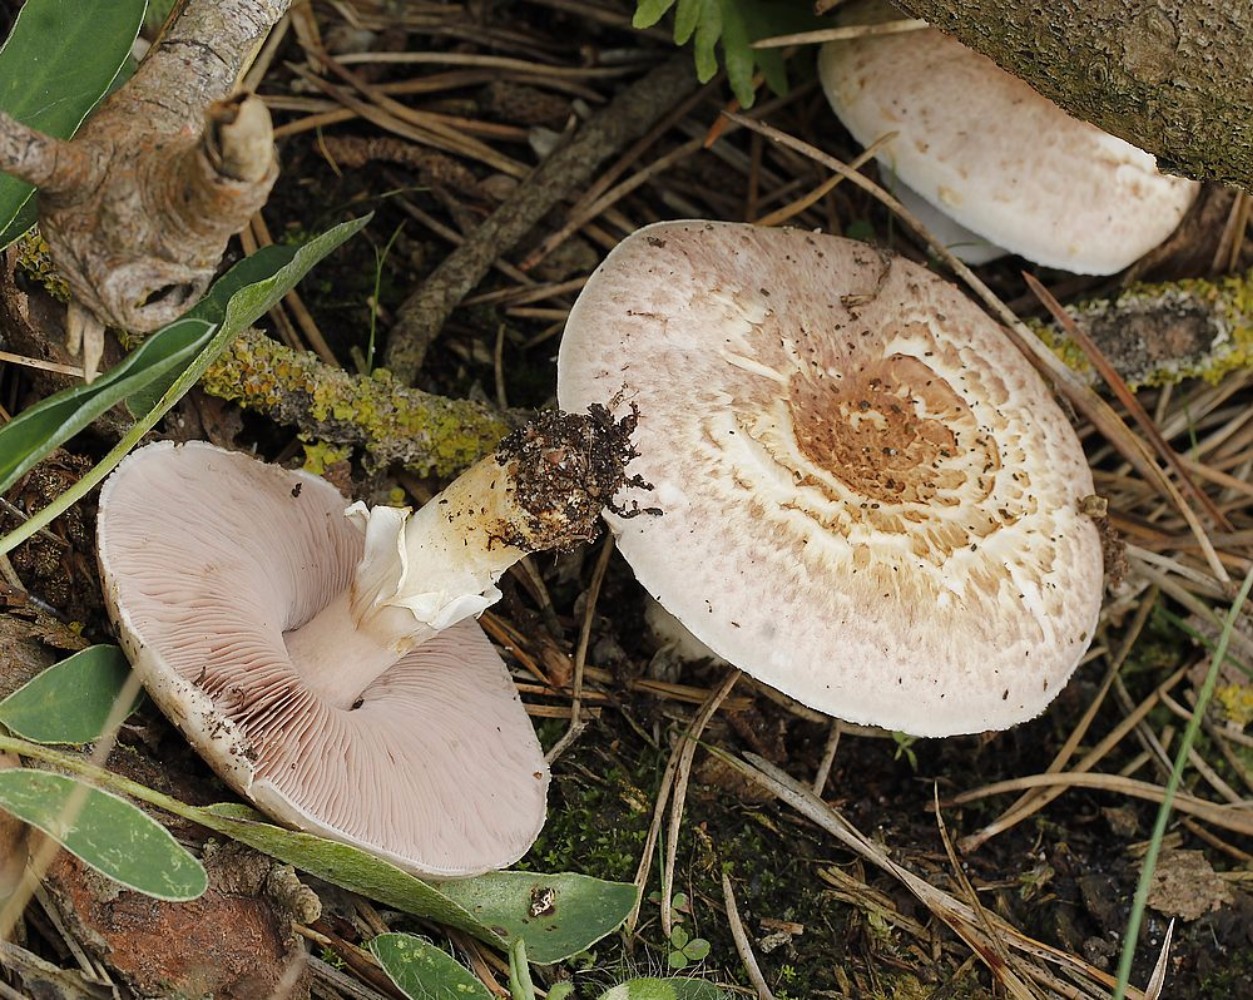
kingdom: Fungi
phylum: Basidiomycota
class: Agaricomycetes
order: Agaricales
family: Agaricaceae
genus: Agaricus
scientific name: Agaricus
